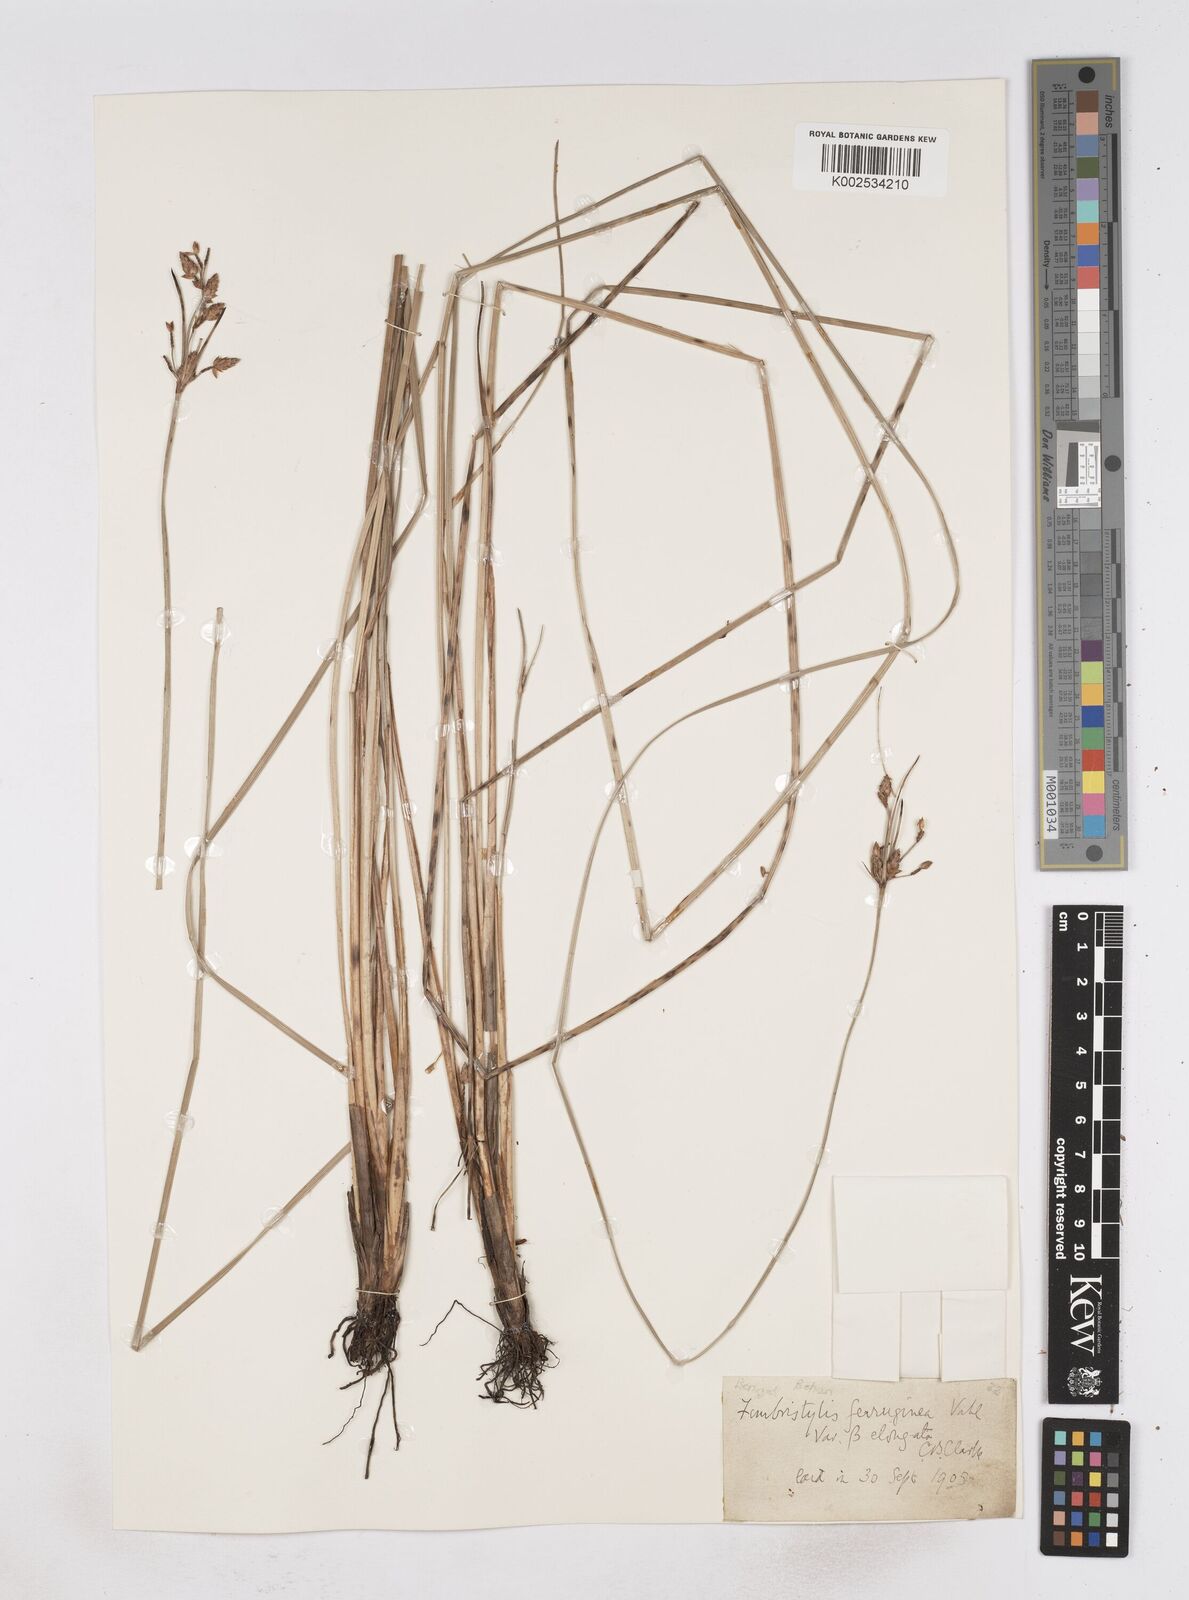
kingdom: Plantae
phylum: Tracheophyta
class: Liliopsida
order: Poales
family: Cyperaceae
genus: Fimbristylis
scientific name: Fimbristylis ferruginea
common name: West indian fimbry
